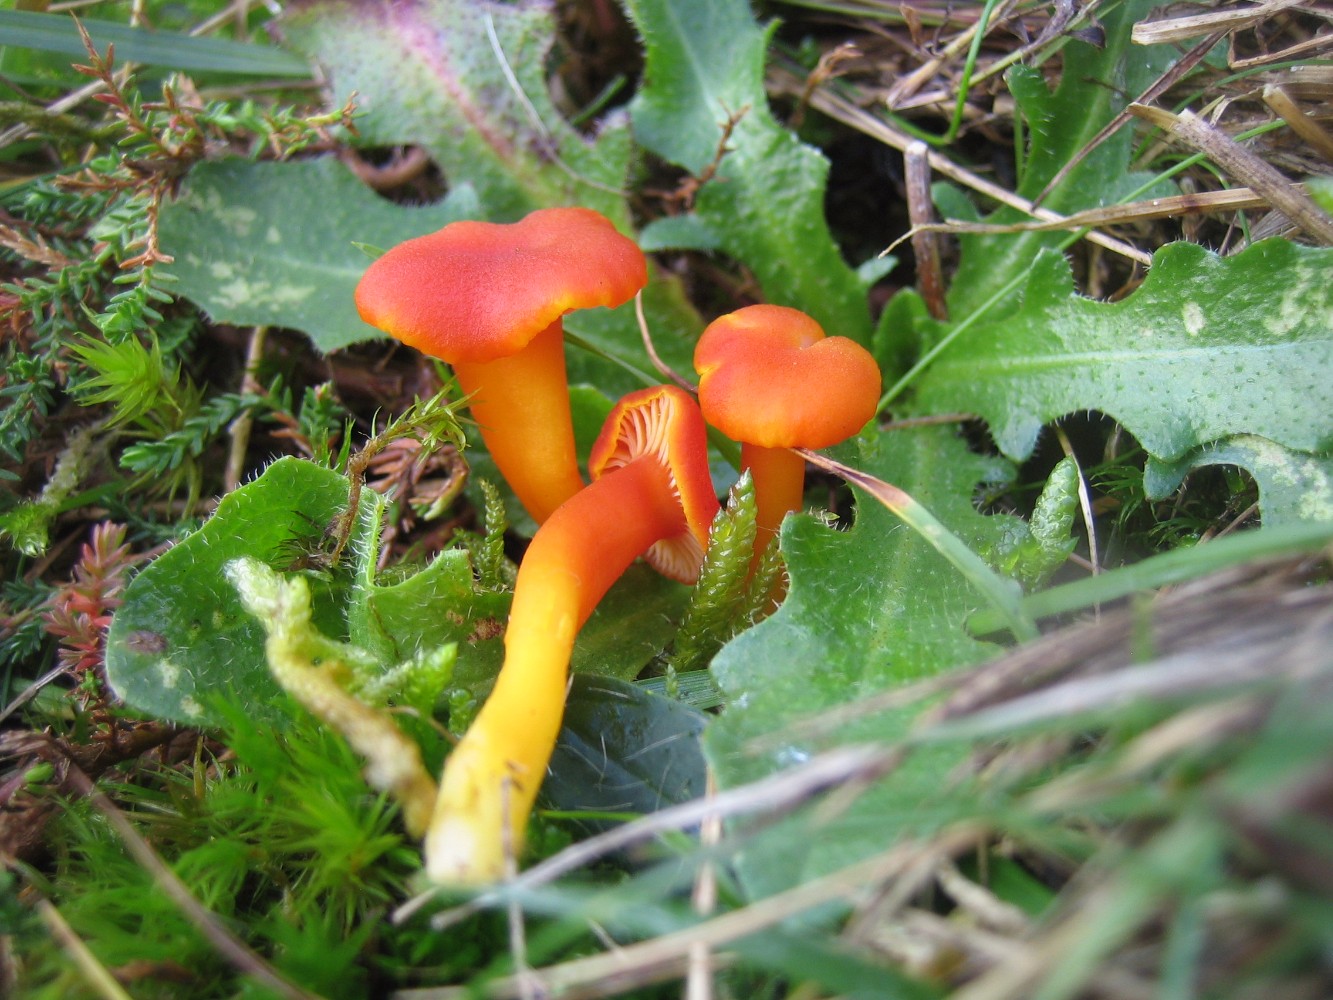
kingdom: Fungi
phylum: Basidiomycota
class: Agaricomycetes
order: Agaricales
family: Hygrophoraceae
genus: Hygrocybe
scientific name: Hygrocybe miniata
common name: mønje-vokshat
